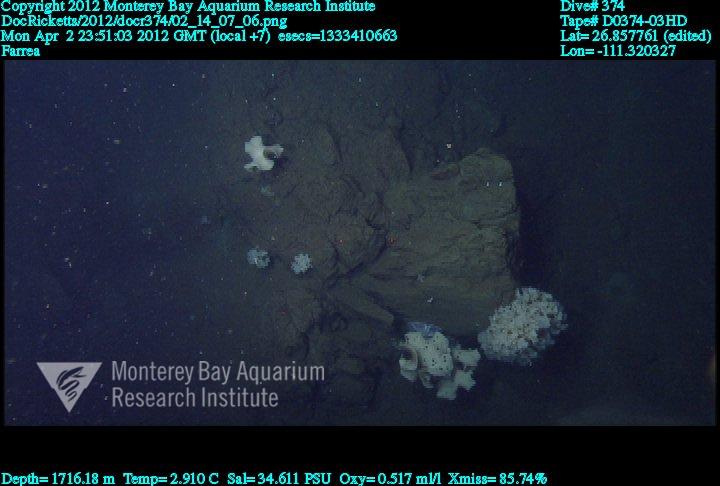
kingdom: Animalia
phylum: Porifera
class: Hexactinellida
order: Sceptrulophora
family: Farreidae
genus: Farrea
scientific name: Farrea
